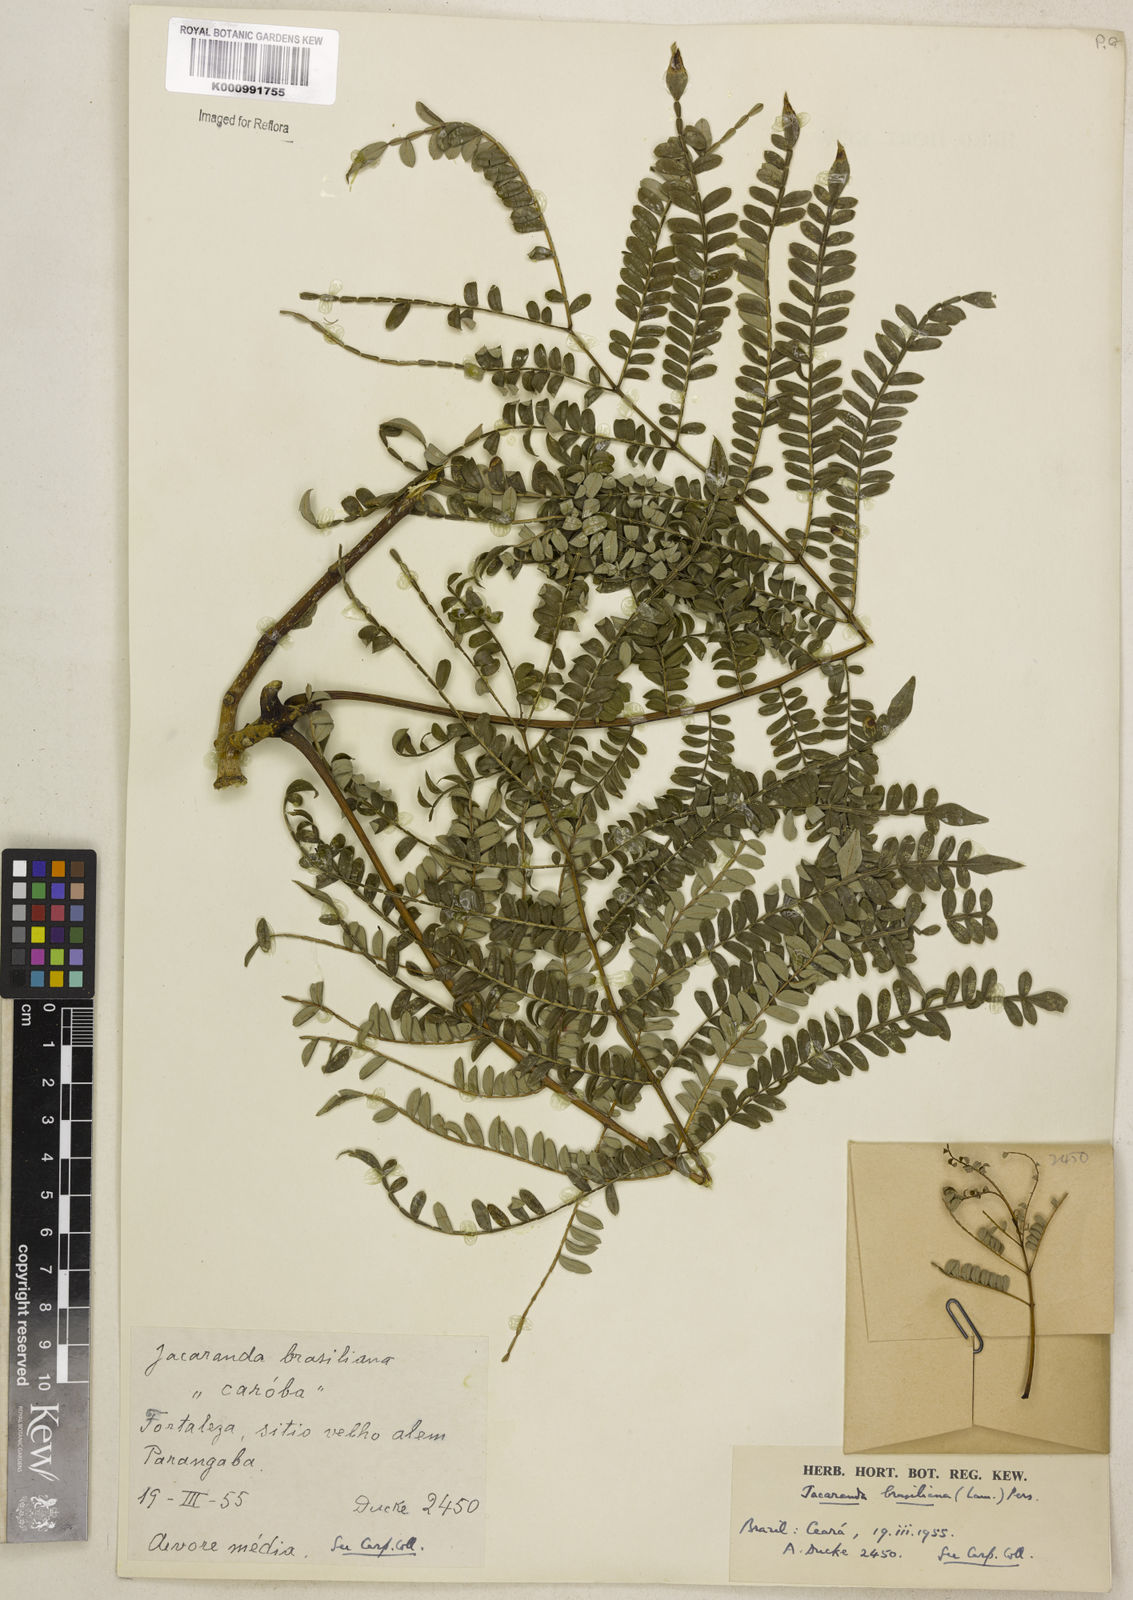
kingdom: Plantae
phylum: Tracheophyta
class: Magnoliopsida
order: Lamiales
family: Bignoniaceae
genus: Jacaranda
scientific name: Jacaranda brasiliana
